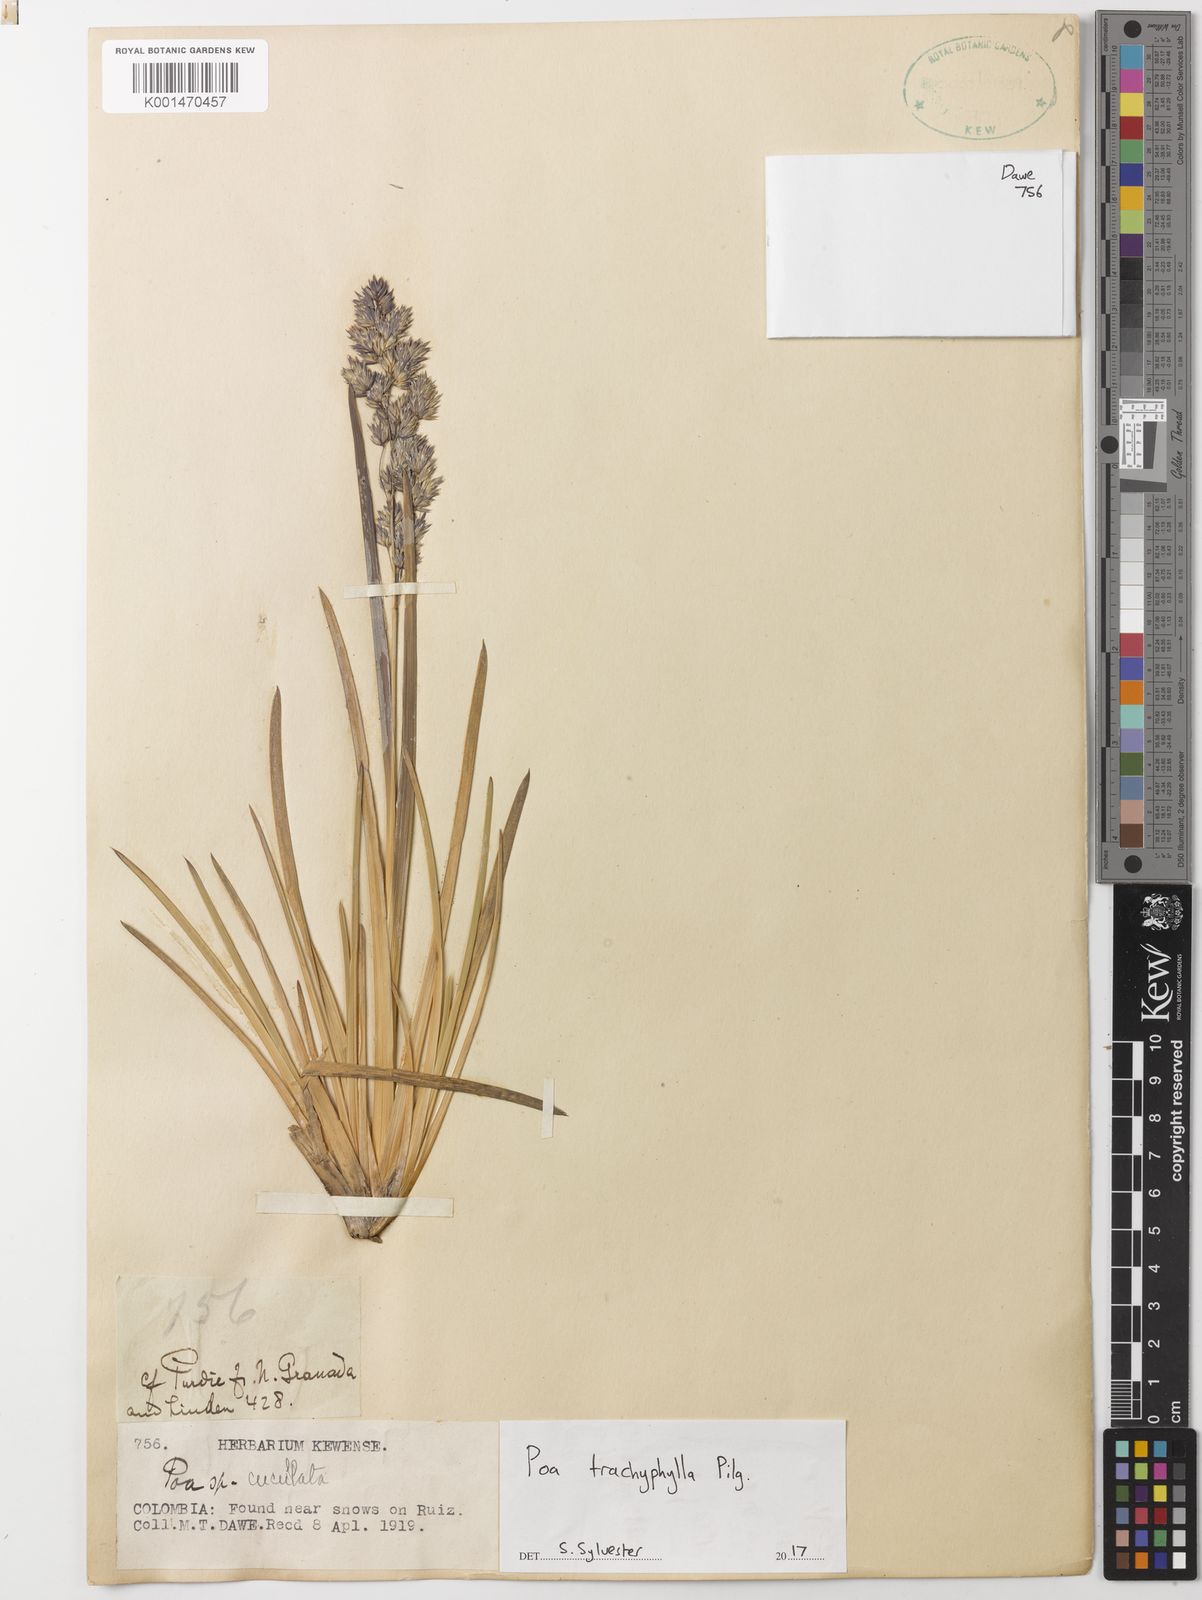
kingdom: Plantae
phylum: Tracheophyta
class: Liliopsida
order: Poales
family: Poaceae
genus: Poa
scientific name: Poa trachyphylla
